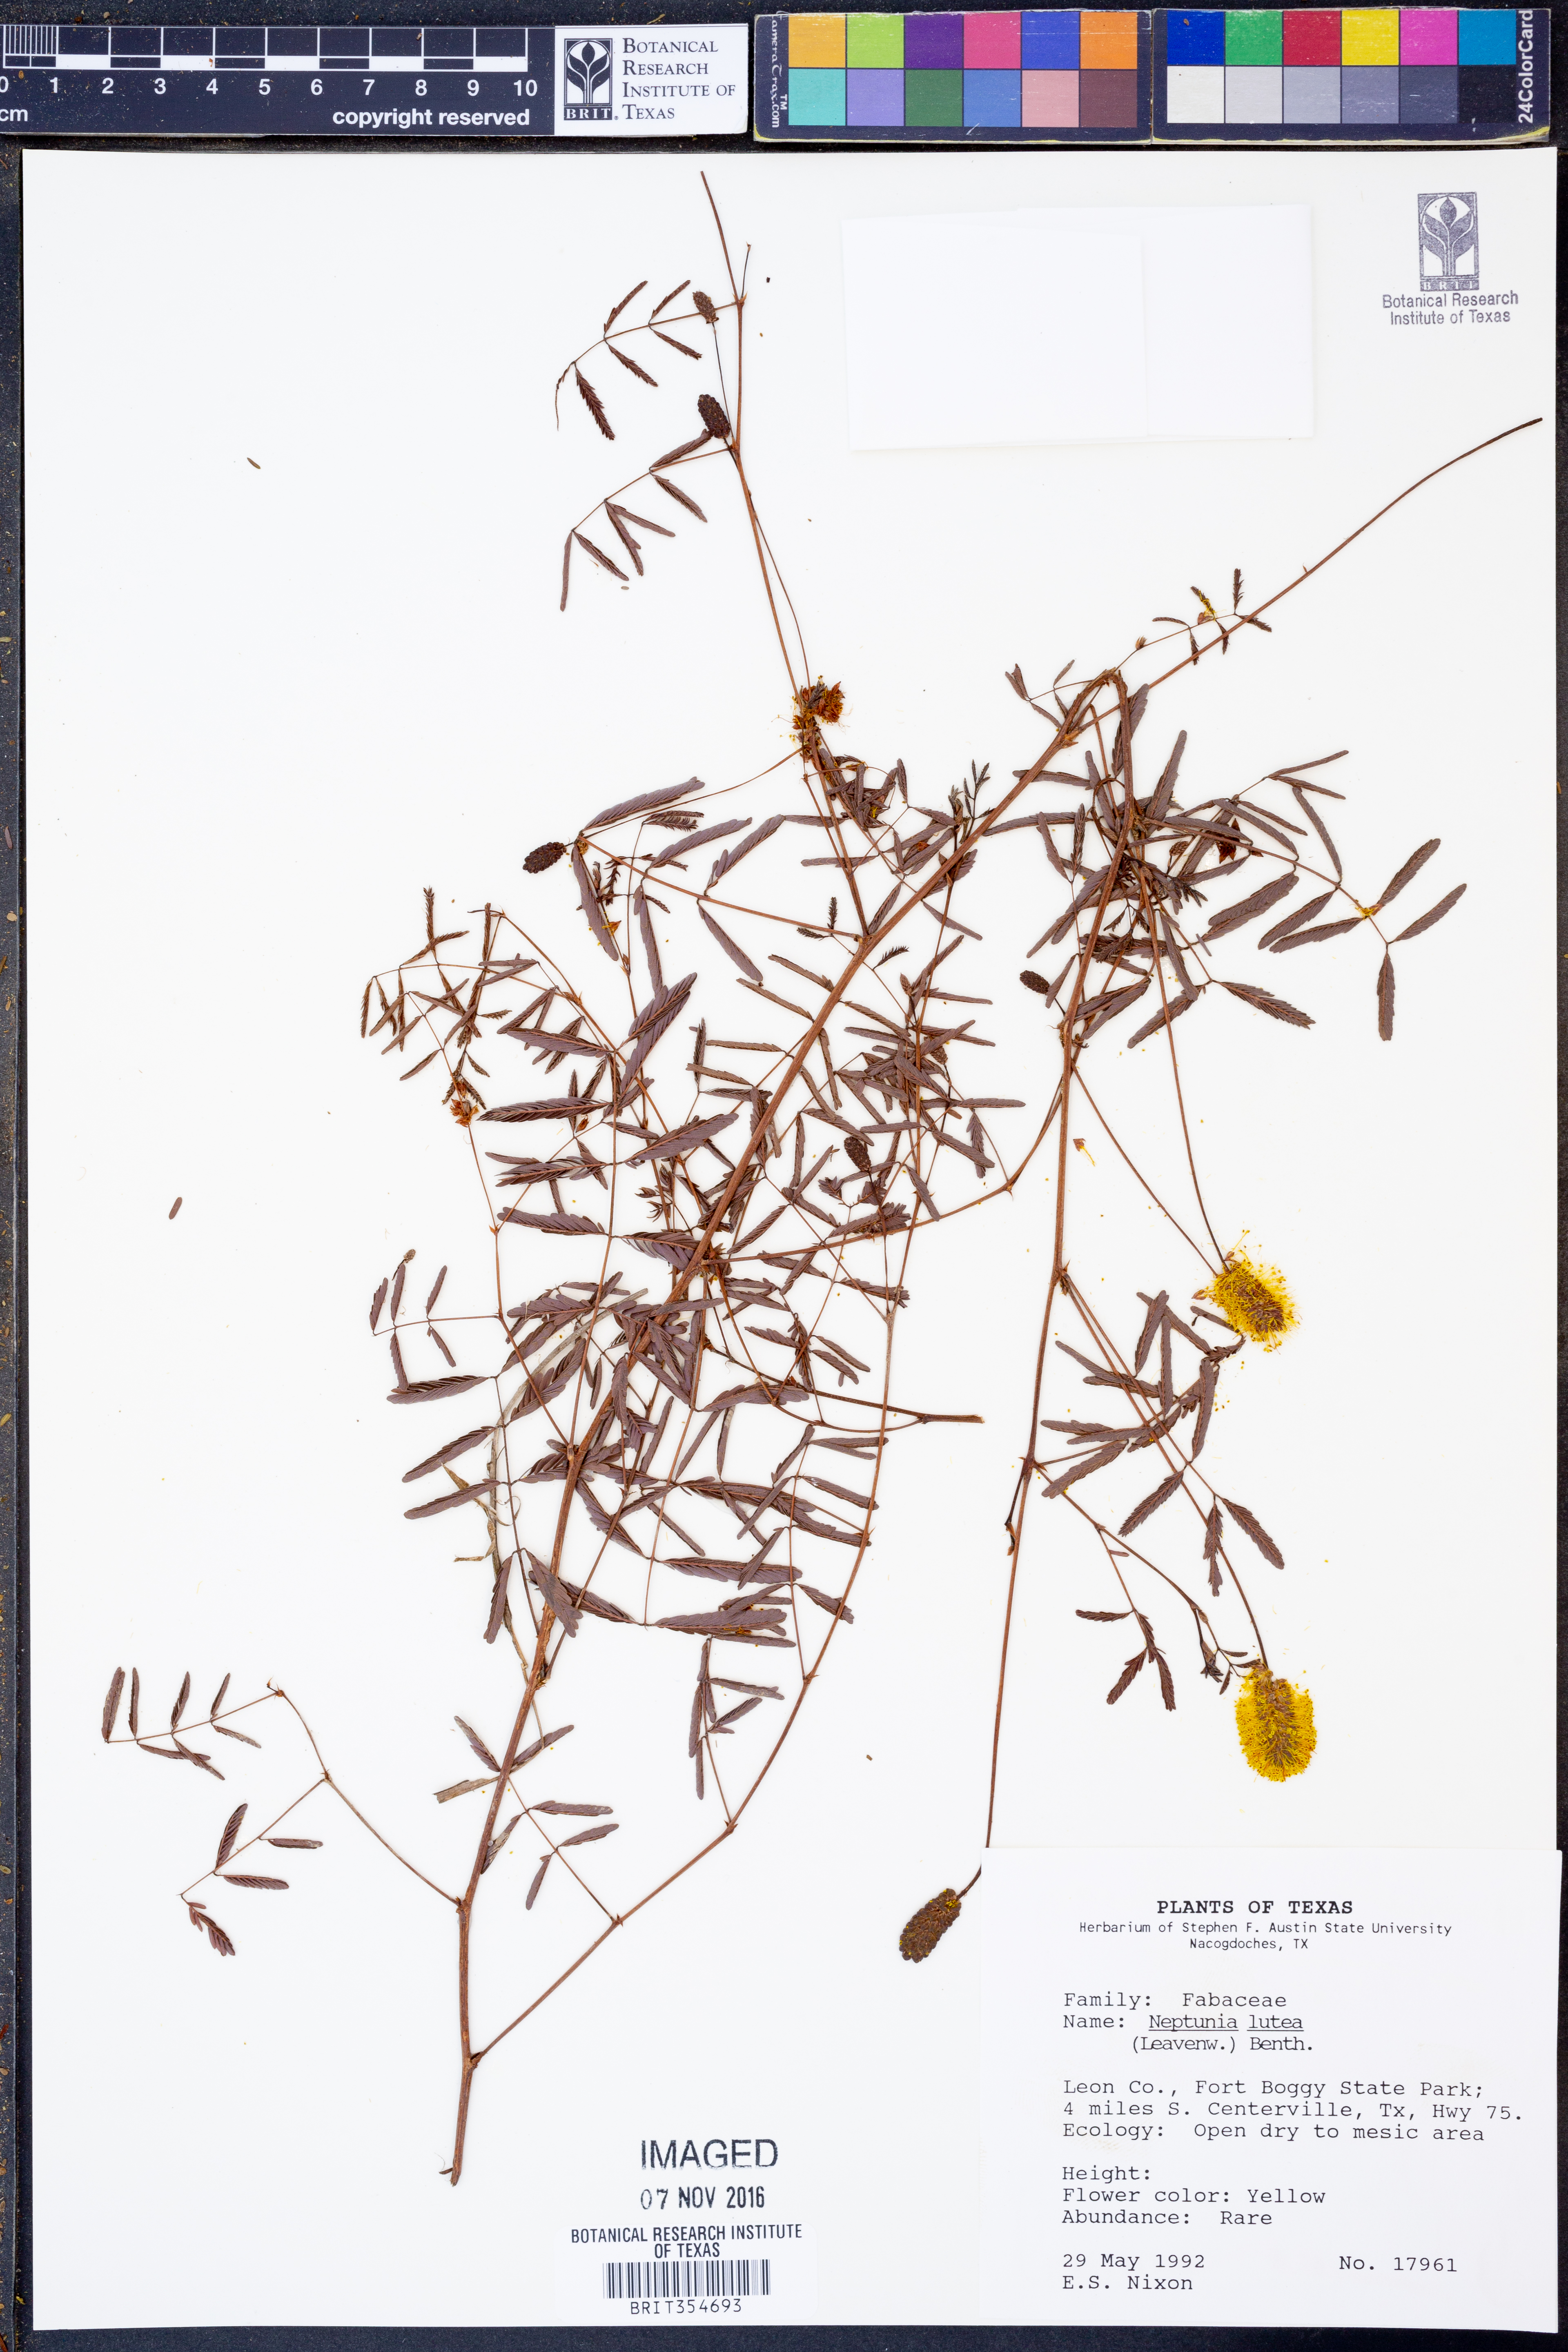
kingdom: Plantae
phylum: Tracheophyta
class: Magnoliopsida
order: Fabales
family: Fabaceae
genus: Neptunia
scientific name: Neptunia lutea
